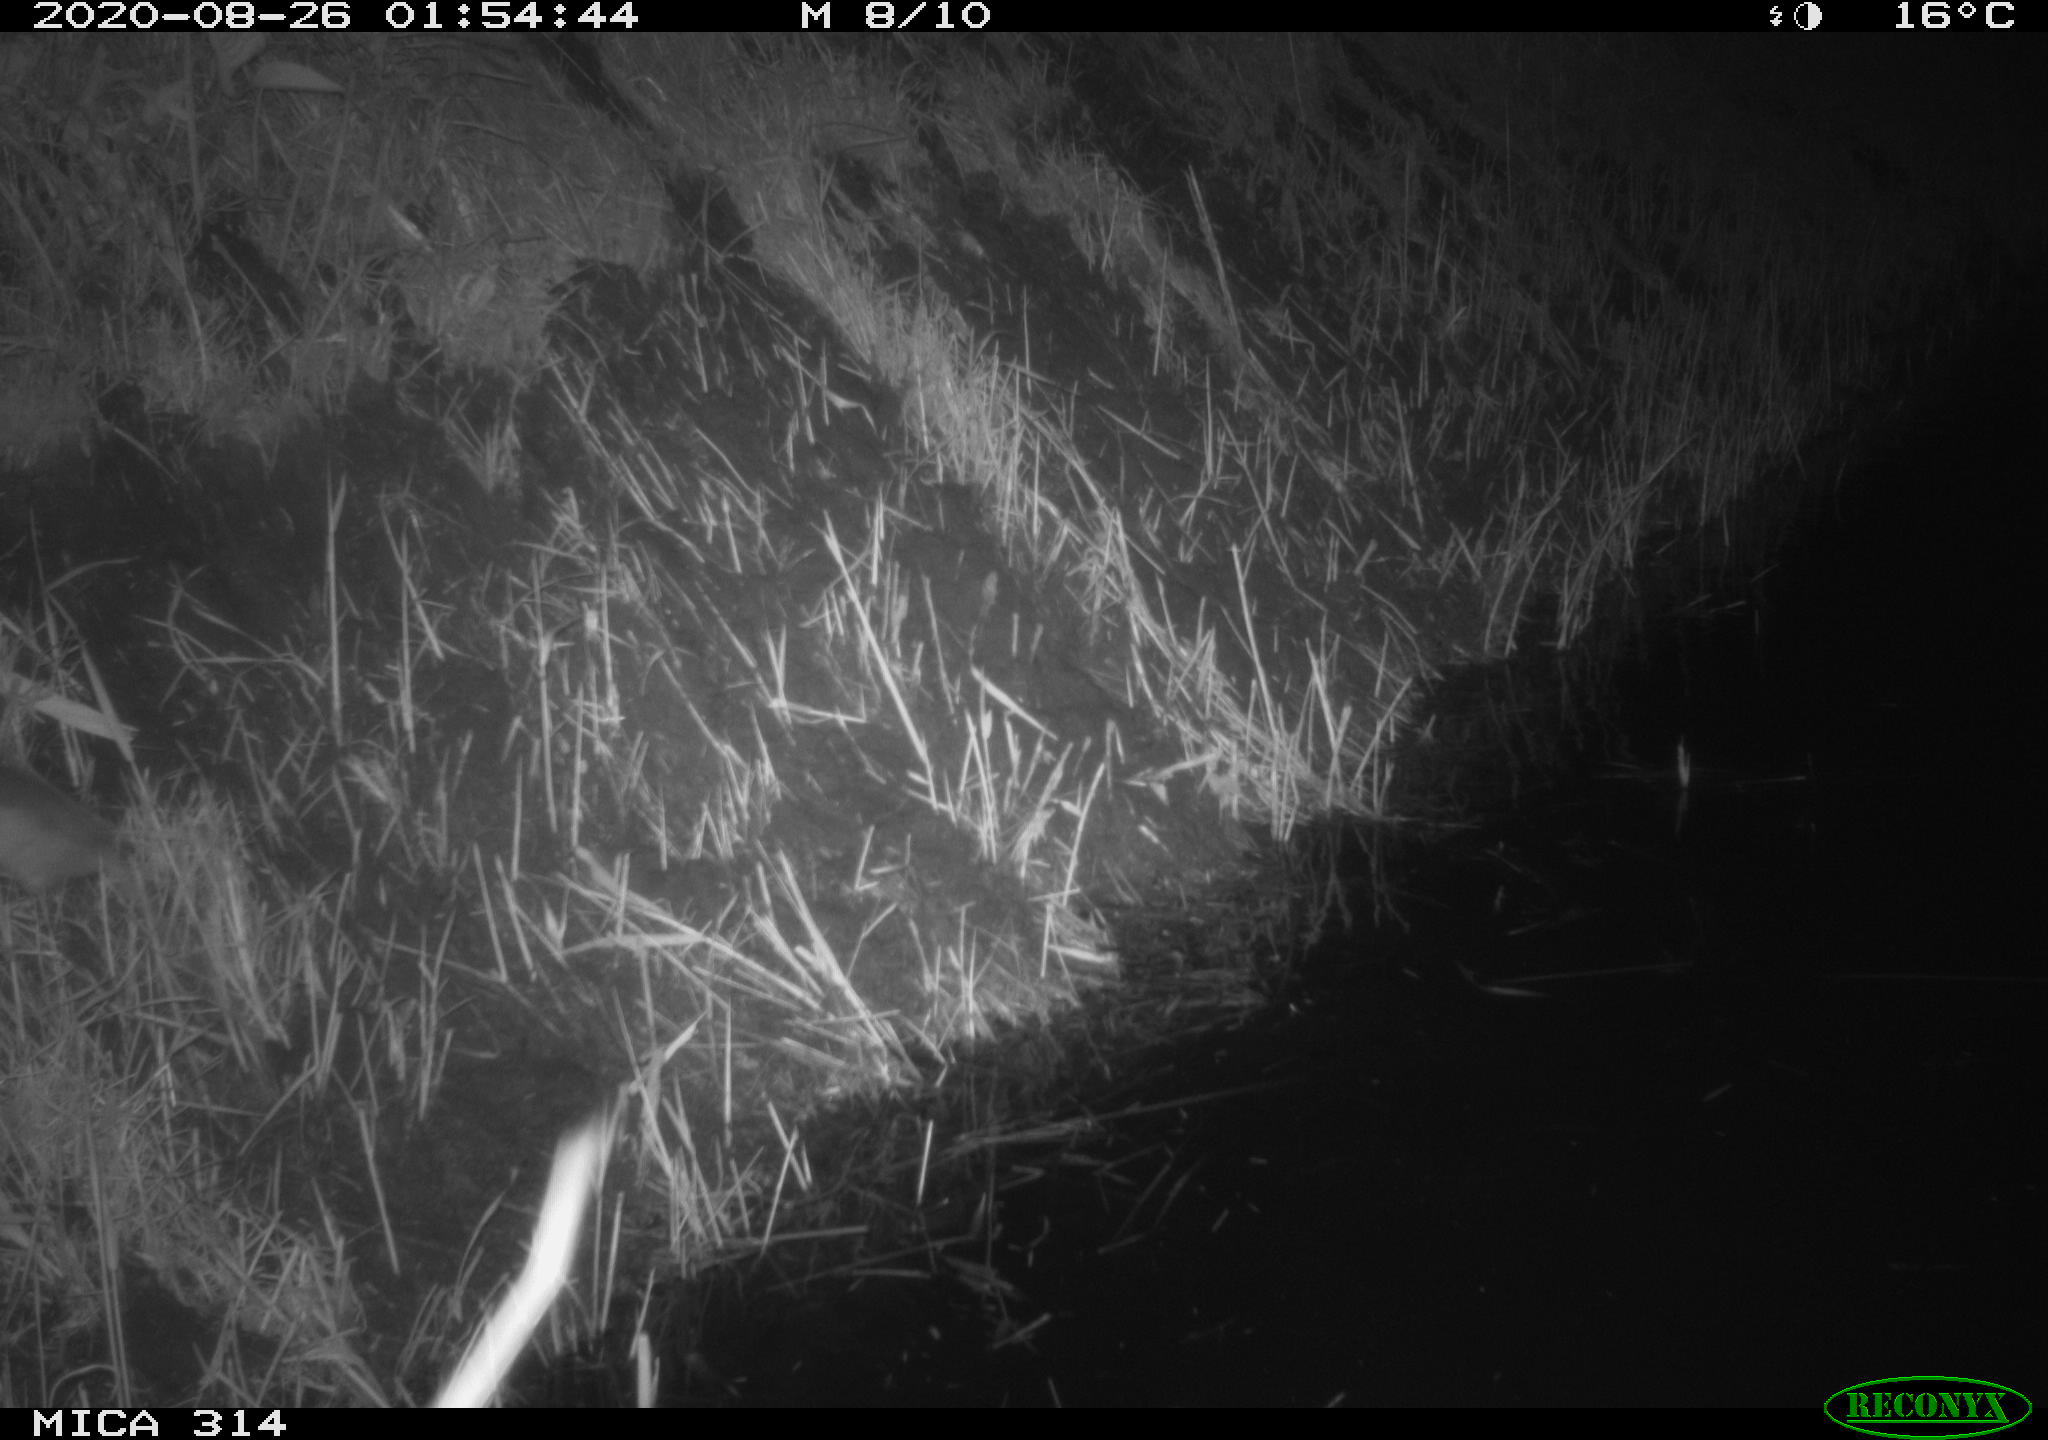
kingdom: Animalia
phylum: Chordata
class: Mammalia
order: Rodentia
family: Muridae
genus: Rattus
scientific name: Rattus norvegicus
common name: Brown rat
